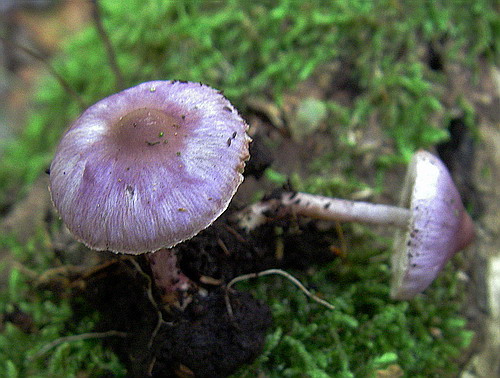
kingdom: Fungi
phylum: Basidiomycota
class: Agaricomycetes
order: Agaricales
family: Inocybaceae
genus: Inocybe
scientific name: Inocybe geophylla
